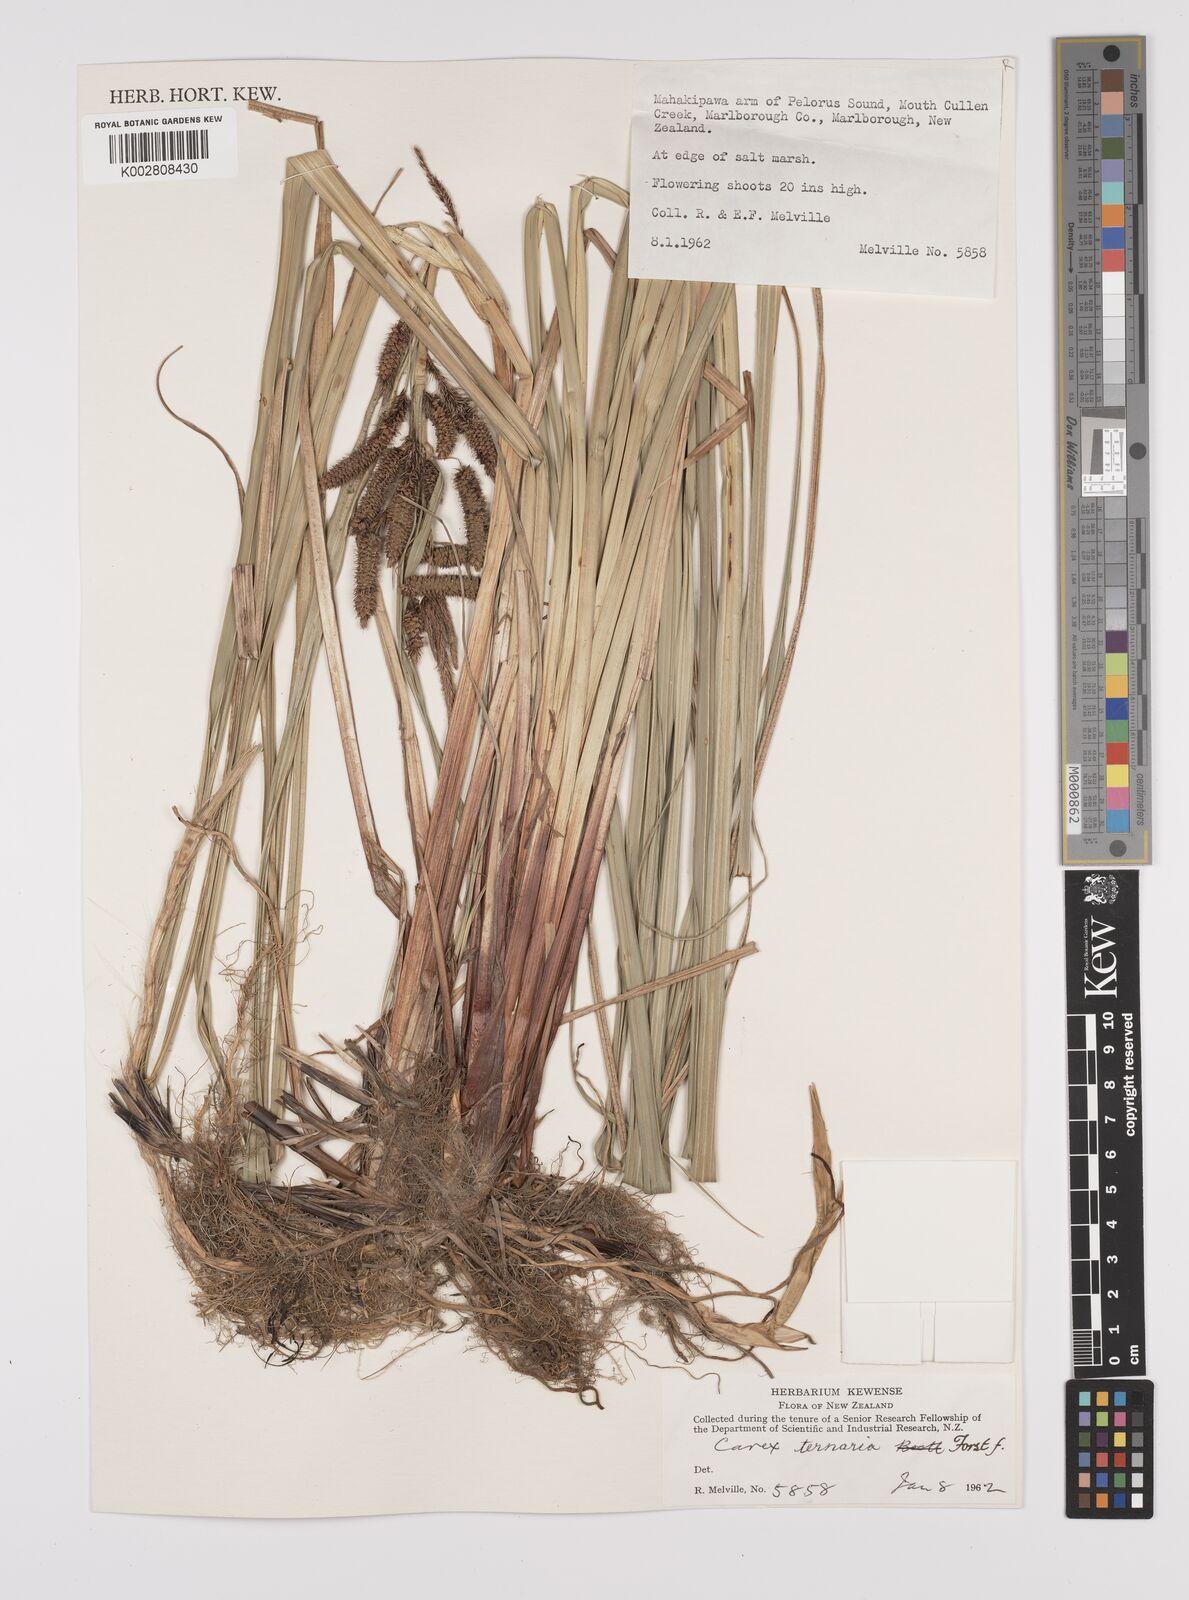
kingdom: Plantae
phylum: Tracheophyta
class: Liliopsida
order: Poales
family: Cyperaceae
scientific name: Cyperaceae
